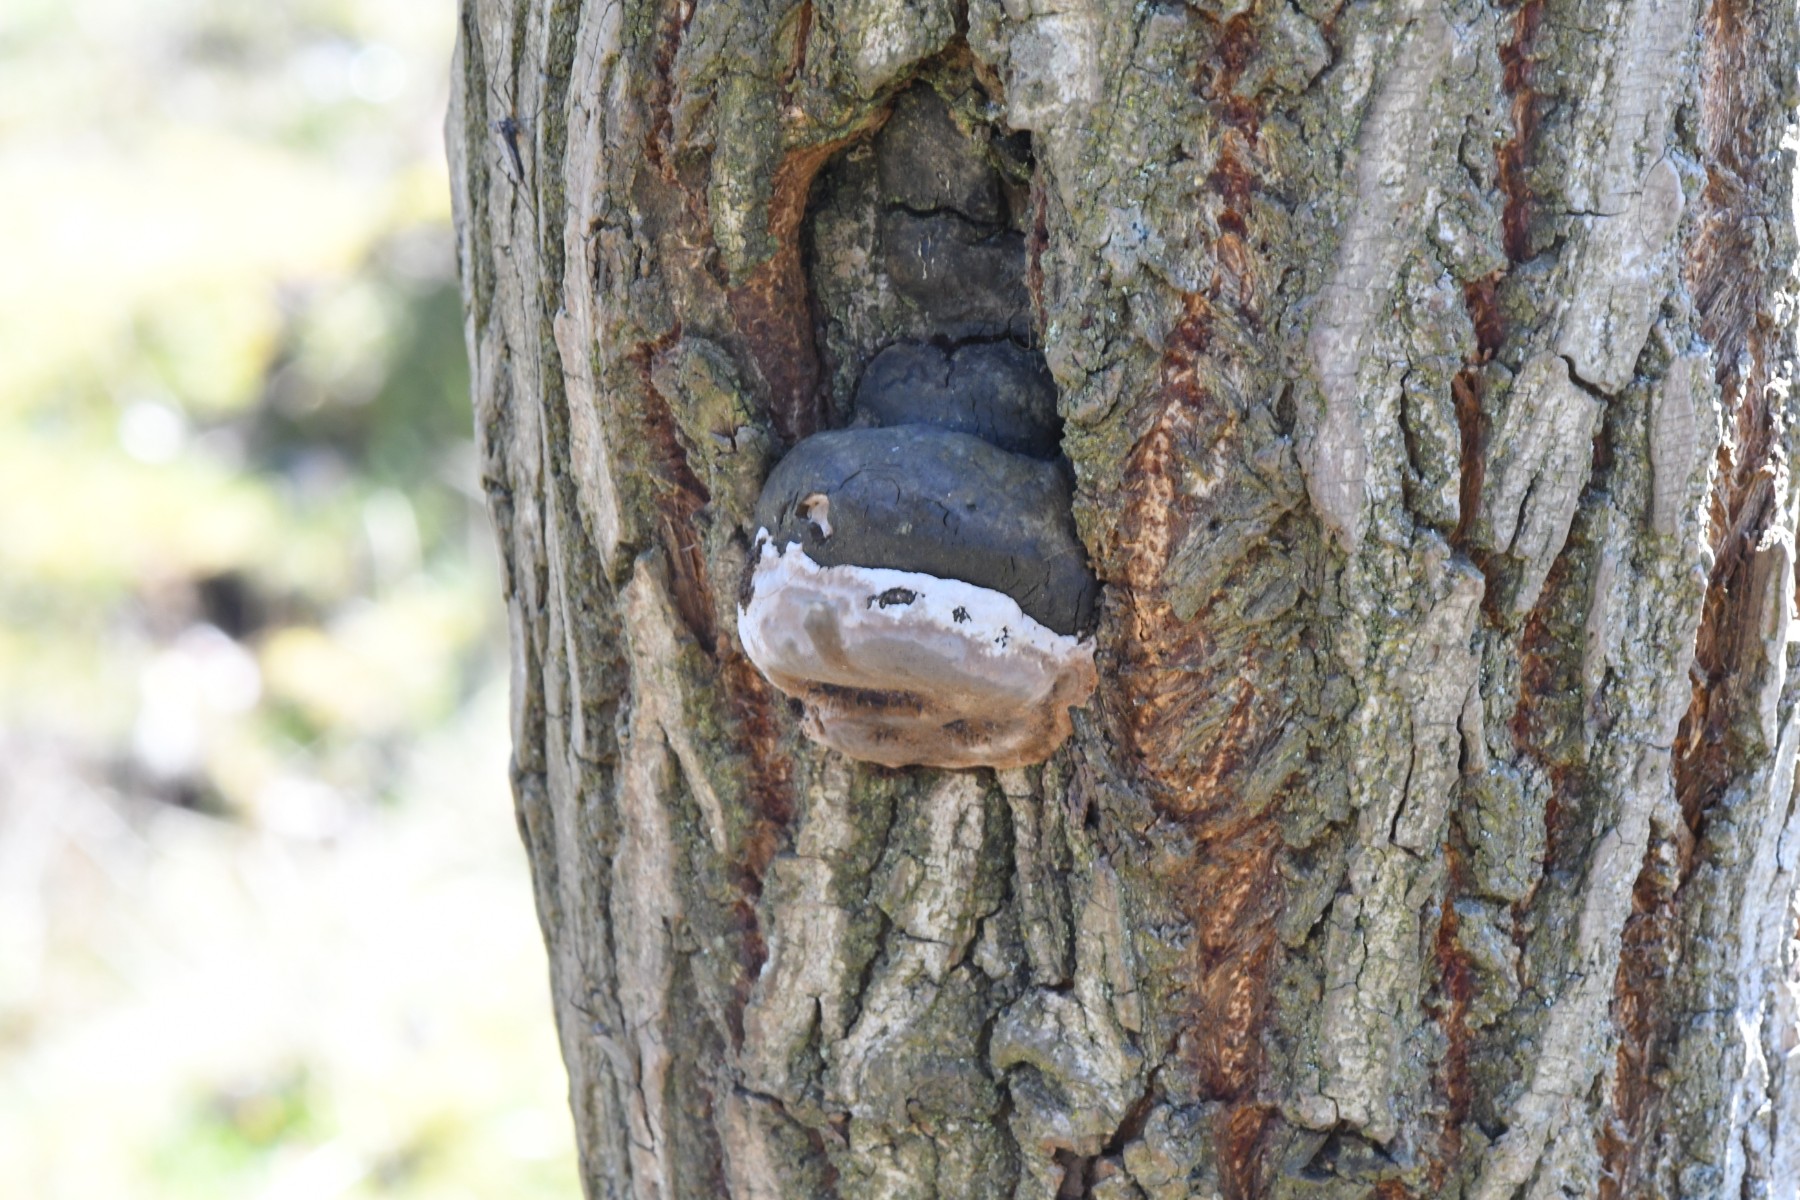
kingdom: Fungi
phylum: Basidiomycota
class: Agaricomycetes
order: Hymenochaetales
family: Hymenochaetaceae
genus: Phellinus
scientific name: Phellinus igniarius
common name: almindelig ildporesvamp
